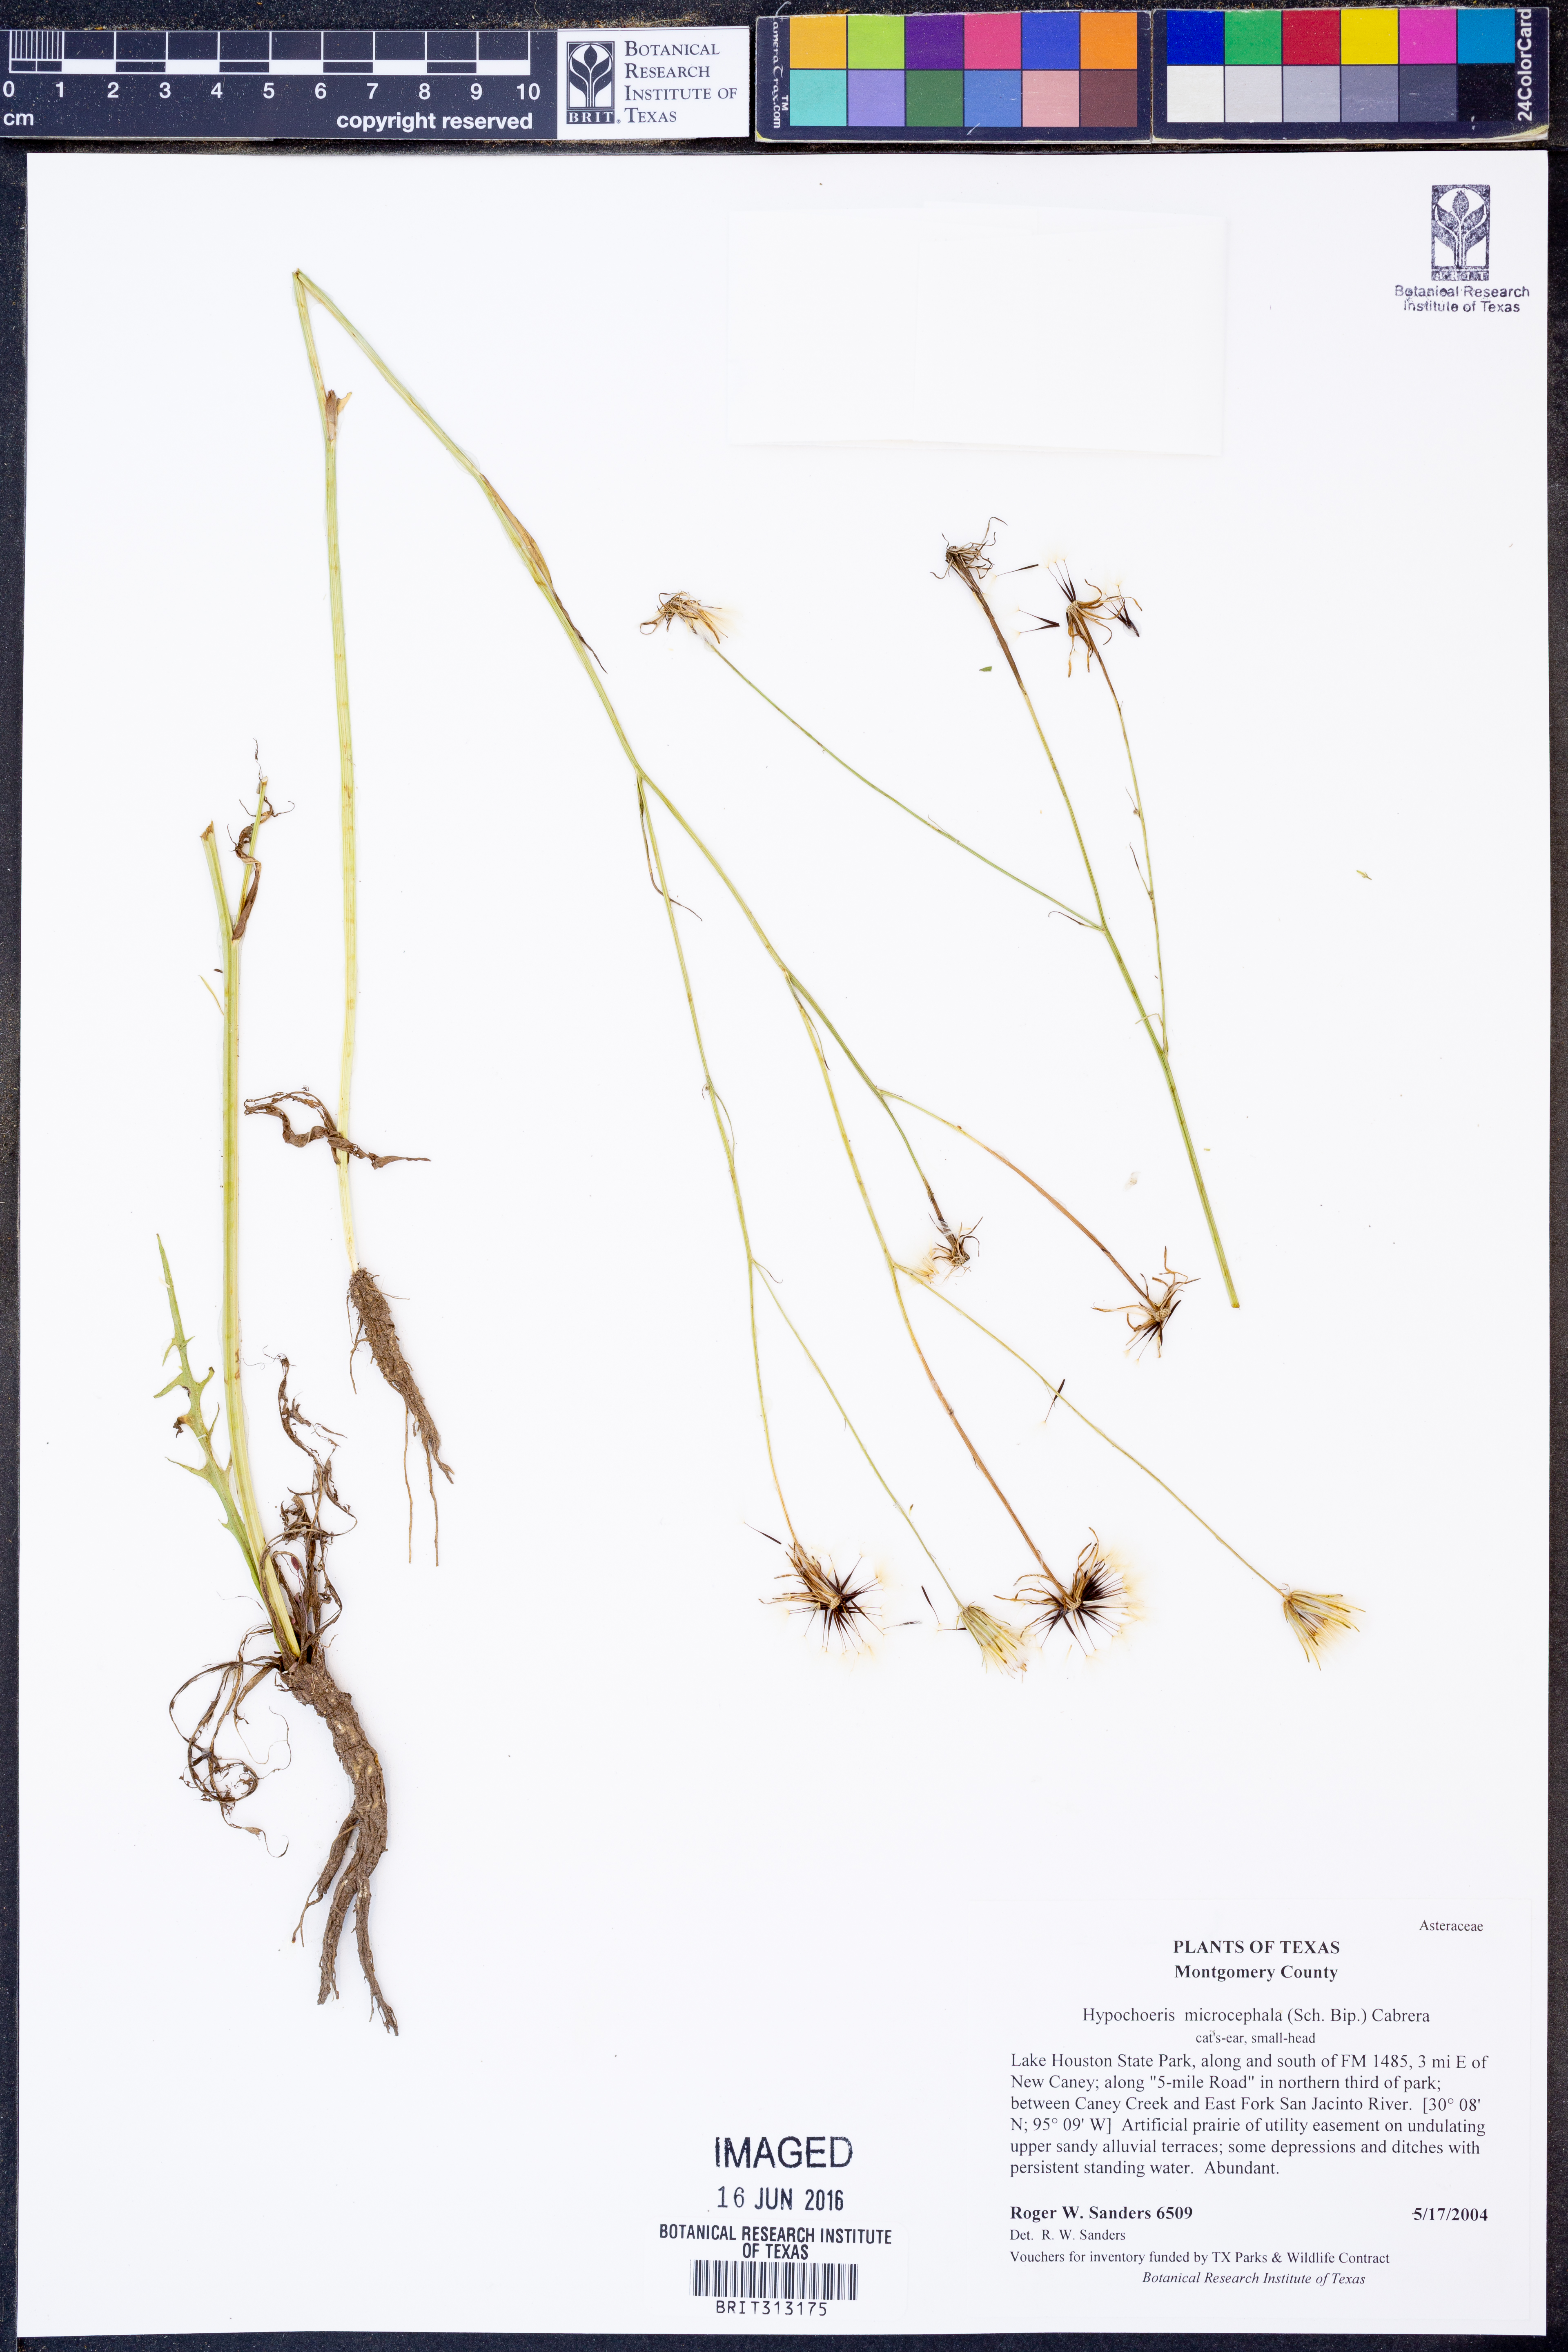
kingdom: Plantae
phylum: Tracheophyta
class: Magnoliopsida
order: Asterales
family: Asteraceae
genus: Hypochaeris
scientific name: Hypochaeris microcephala
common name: White flatweed
